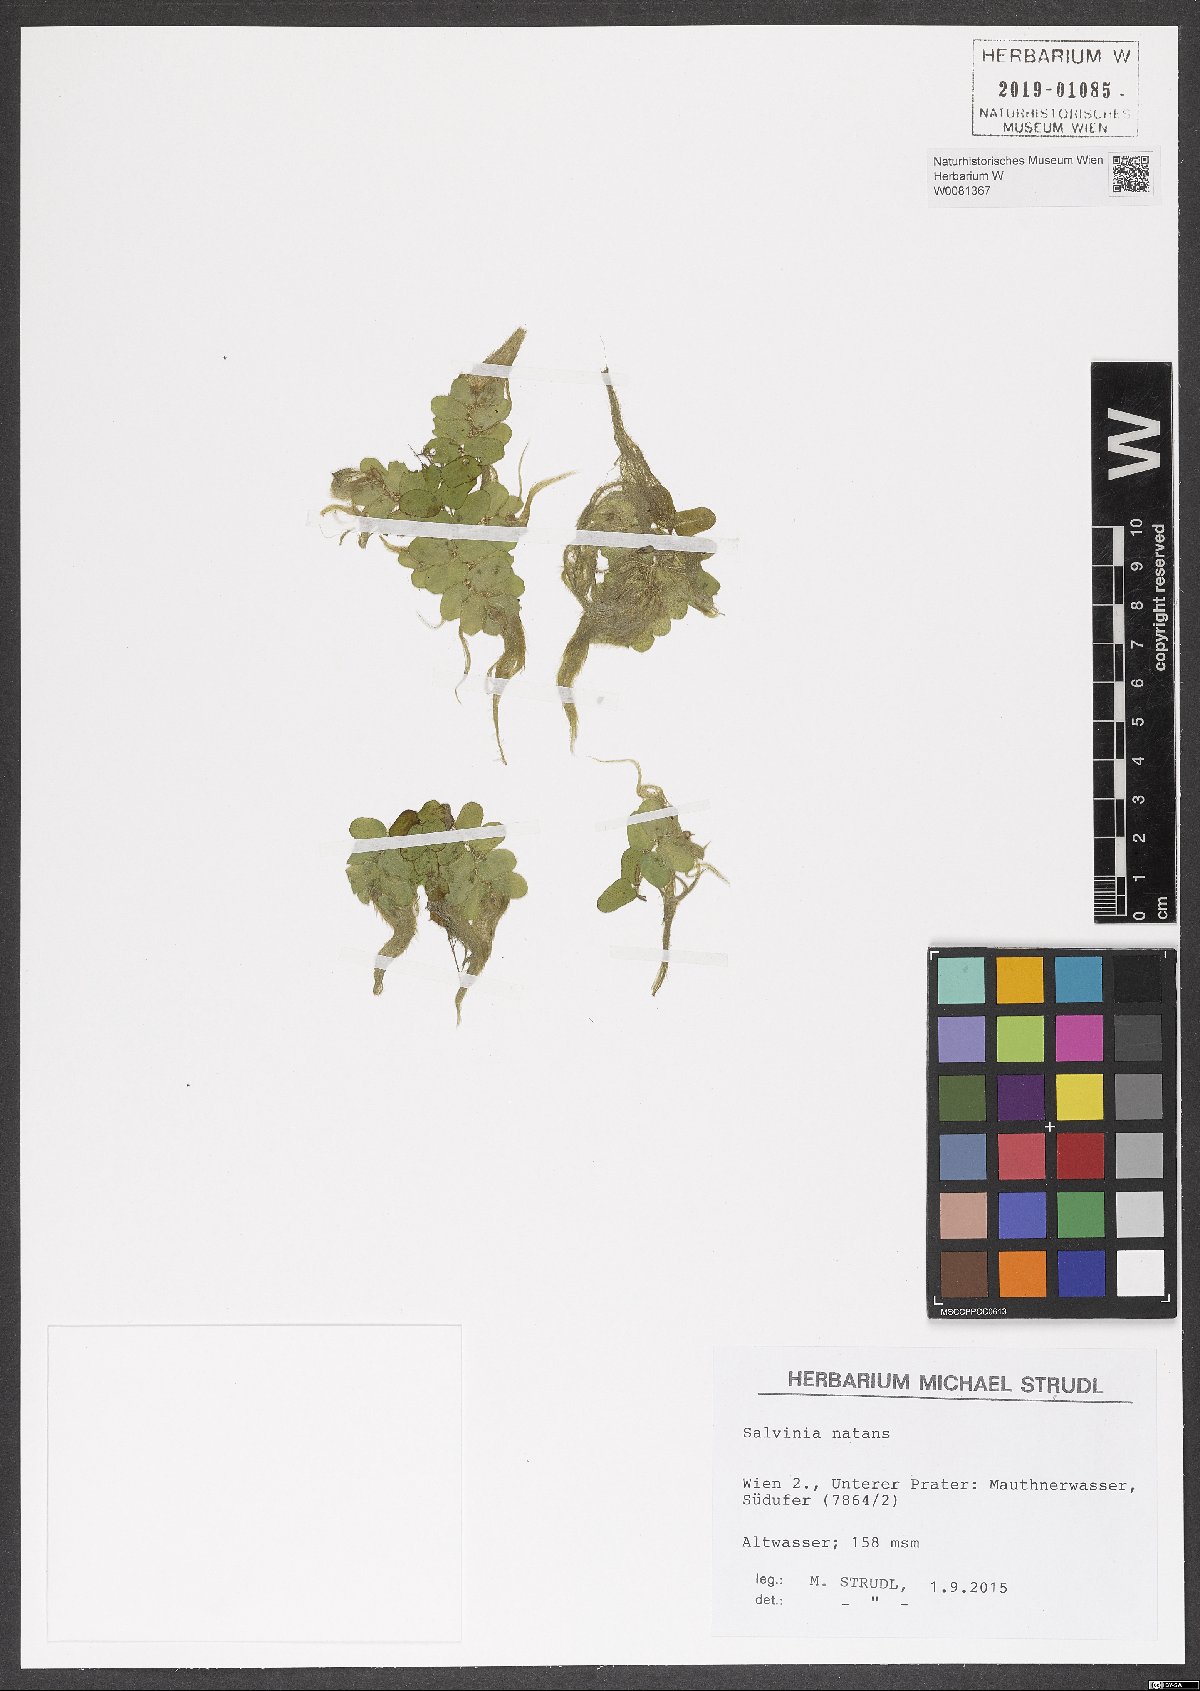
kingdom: Plantae
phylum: Tracheophyta
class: Polypodiopsida
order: Salviniales
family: Salviniaceae
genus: Salvinia
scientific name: Salvinia natans
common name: Floating fern
